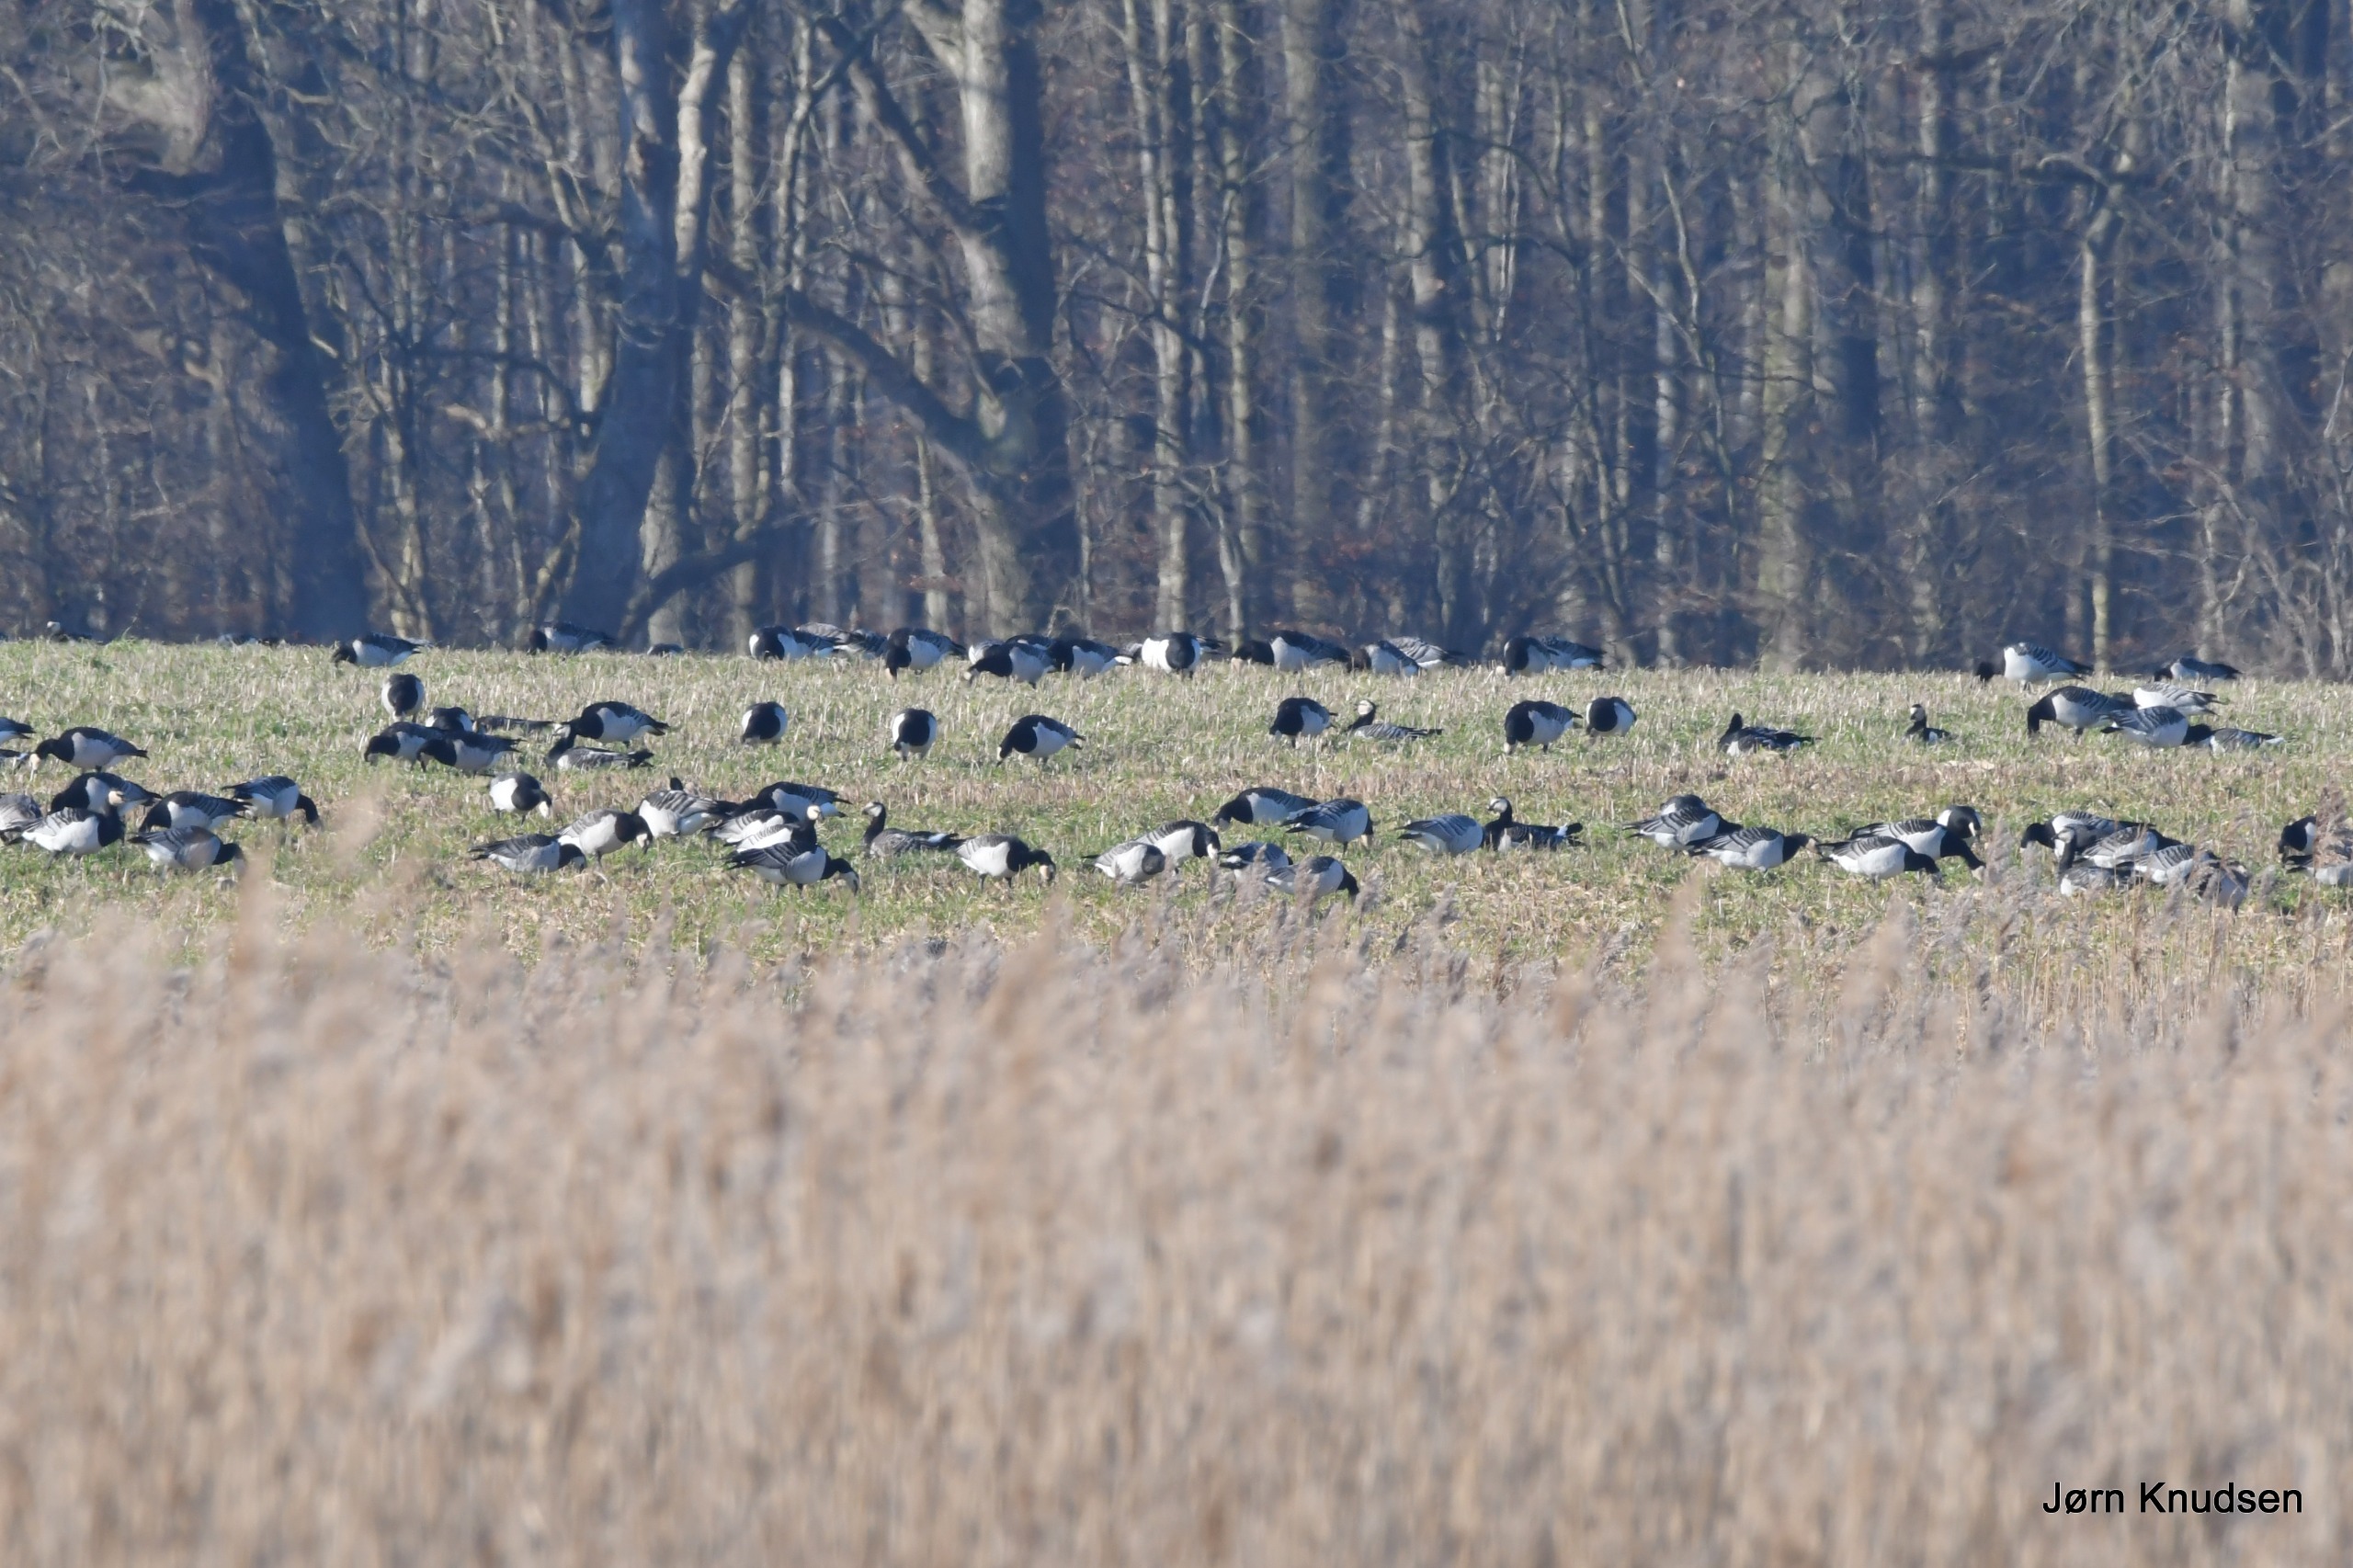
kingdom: Animalia
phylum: Chordata
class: Aves
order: Anseriformes
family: Anatidae
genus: Branta
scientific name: Branta leucopsis
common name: Bramgås
